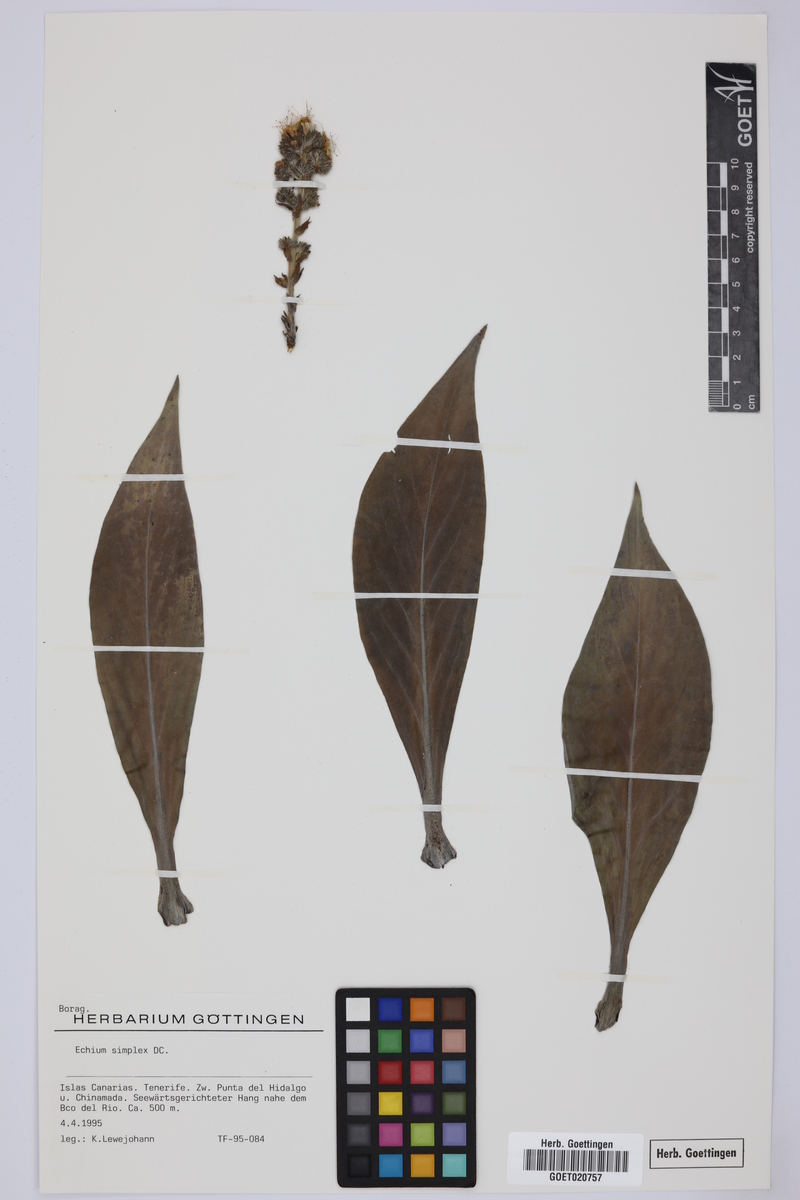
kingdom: Plantae
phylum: Tracheophyta
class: Magnoliopsida
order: Boraginales
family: Boraginaceae
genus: Echium
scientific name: Echium simplex
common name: Pride-of-tenerife
